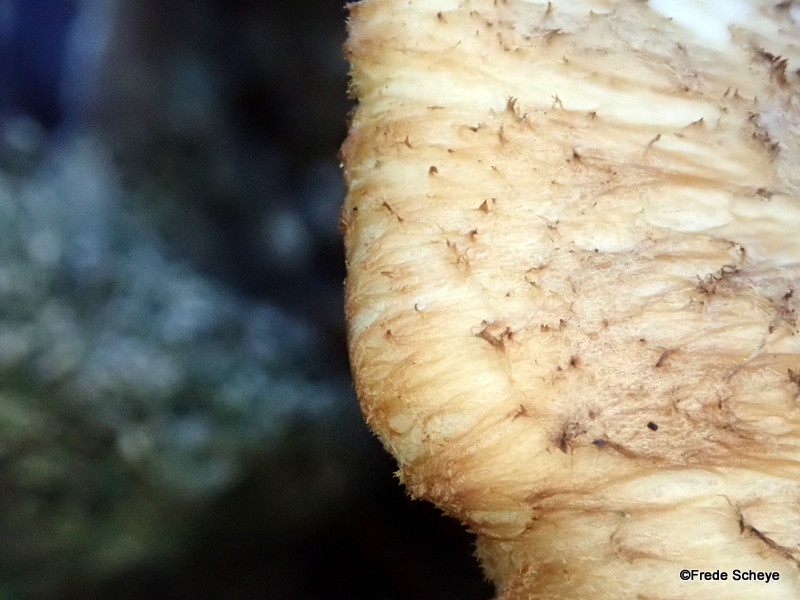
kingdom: Fungi
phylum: Basidiomycota
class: Agaricomycetes
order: Polyporales
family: Polyporaceae
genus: Polyporus
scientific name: Polyporus tuberaster
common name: knoldet stilkporesvamp
